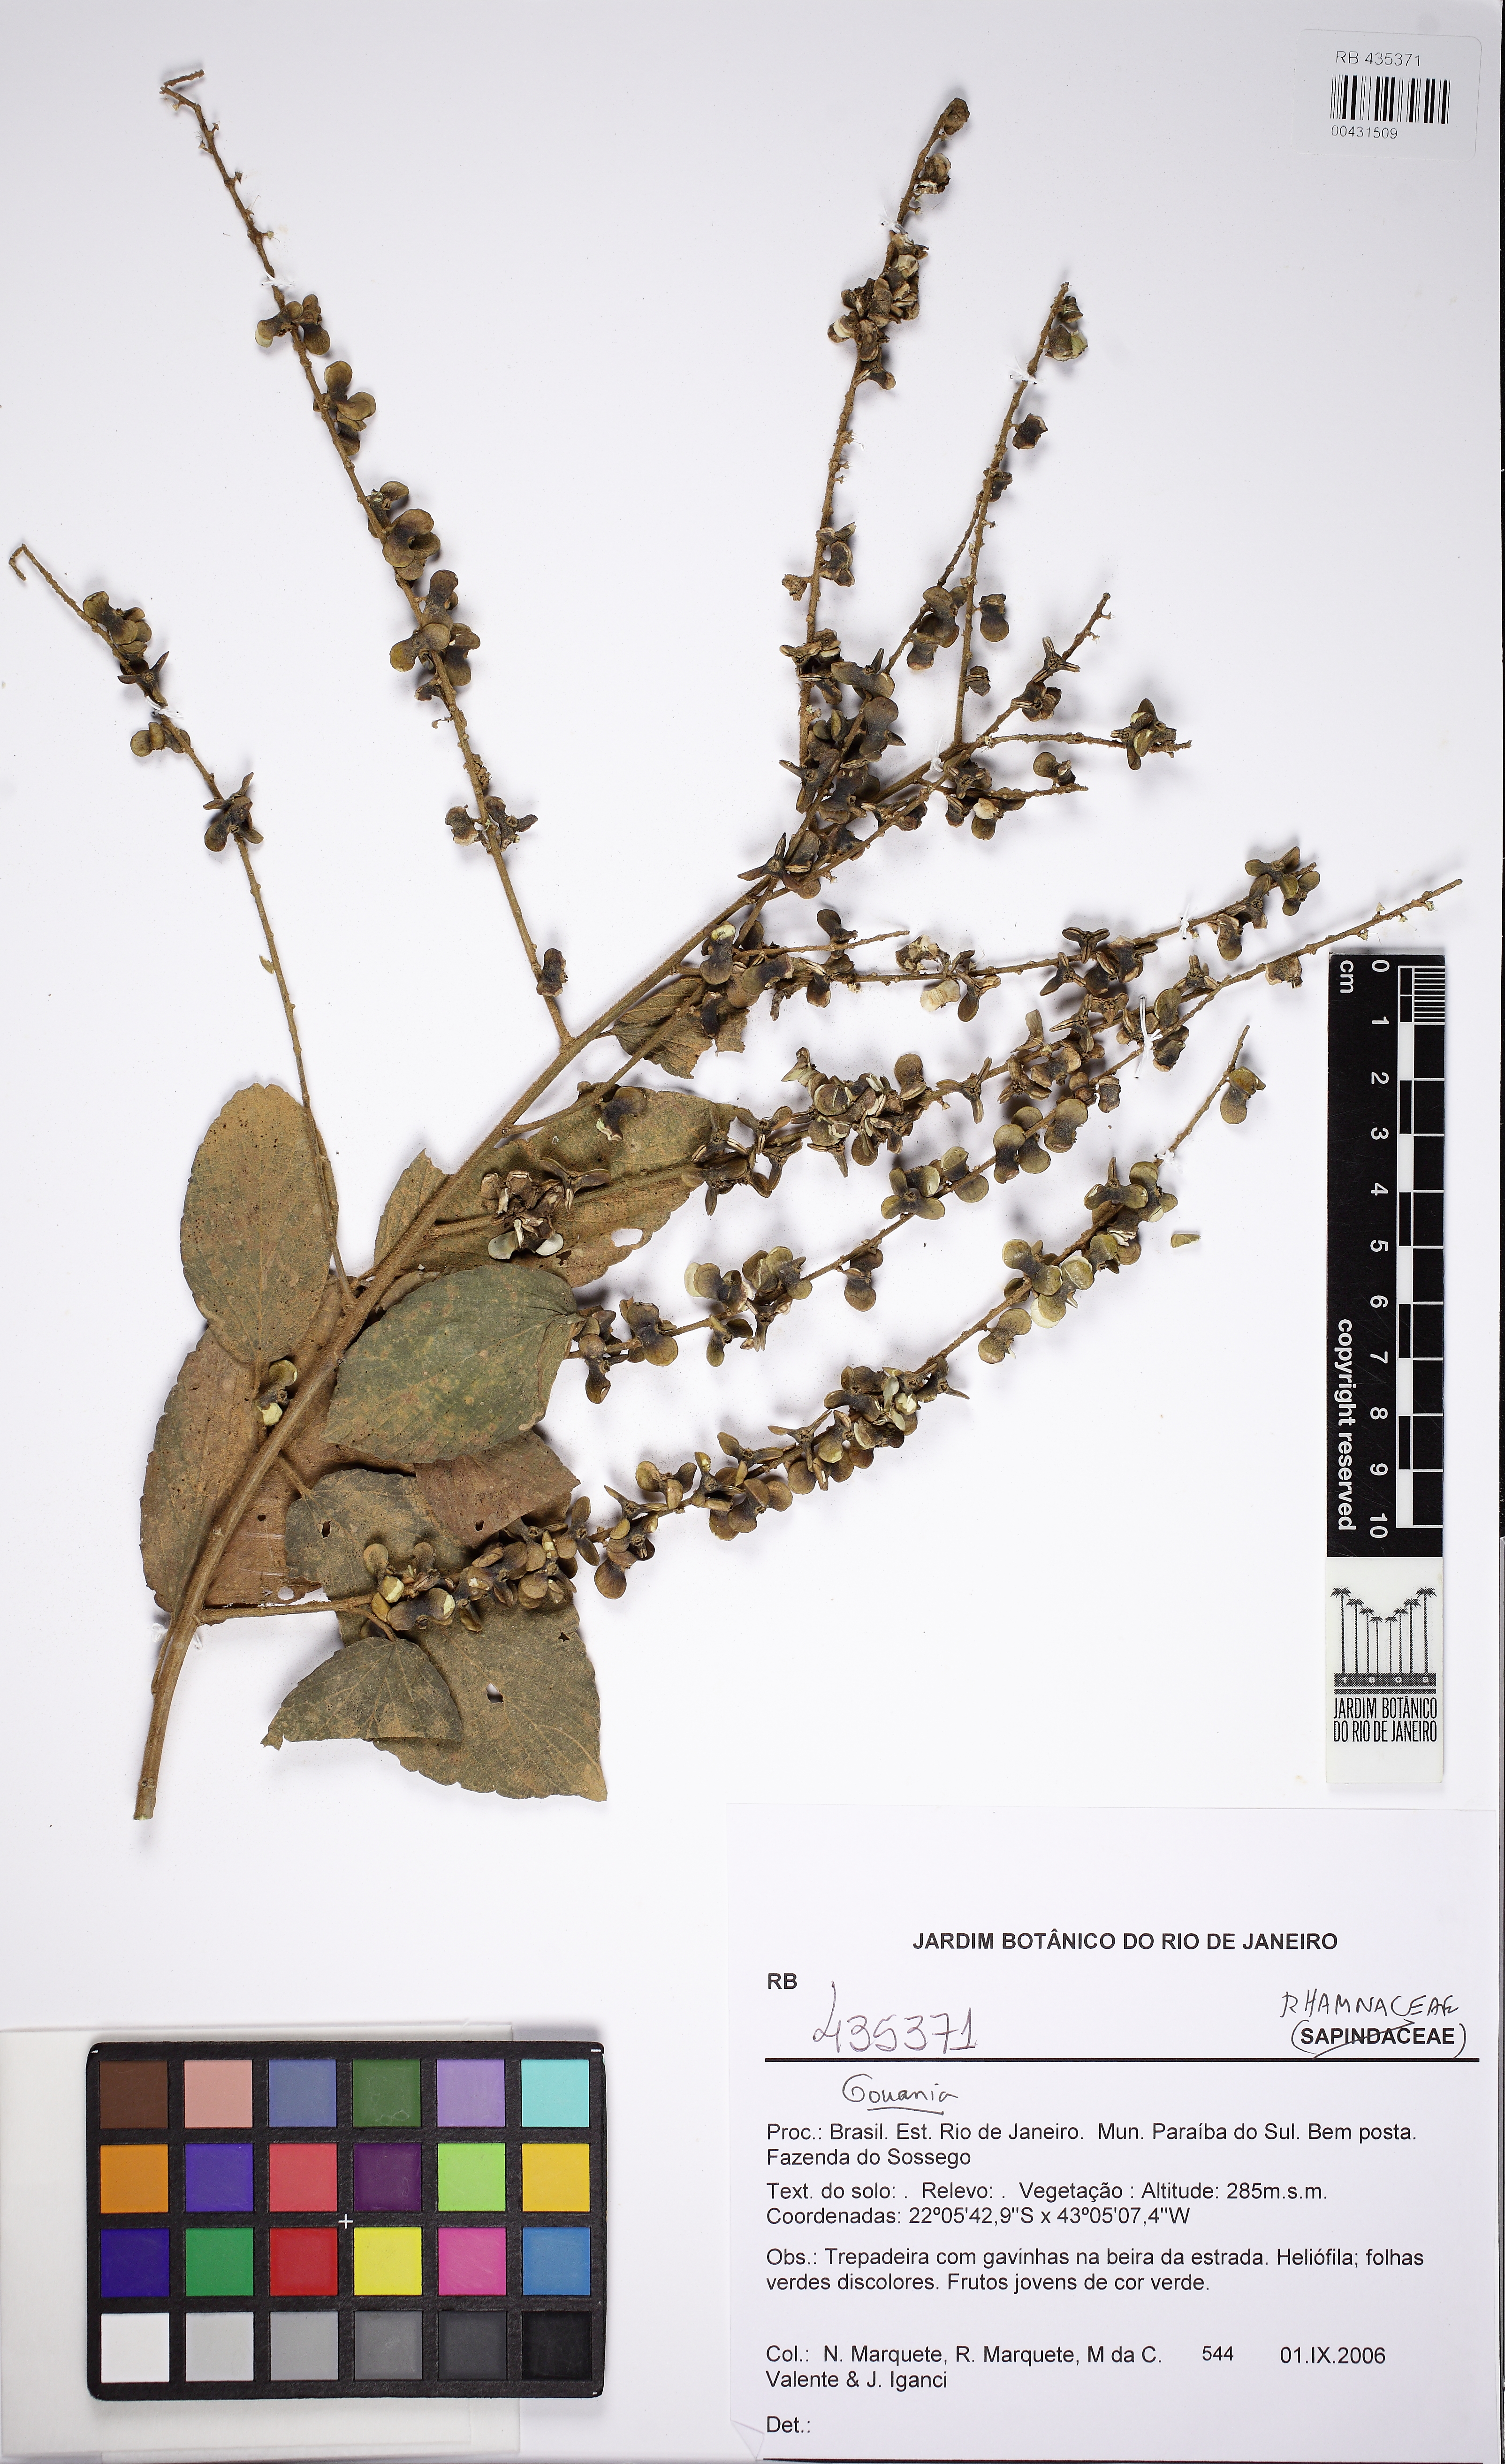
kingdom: Plantae
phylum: Tracheophyta
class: Magnoliopsida
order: Rosales
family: Rhamnaceae
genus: Gouania
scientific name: Gouania
